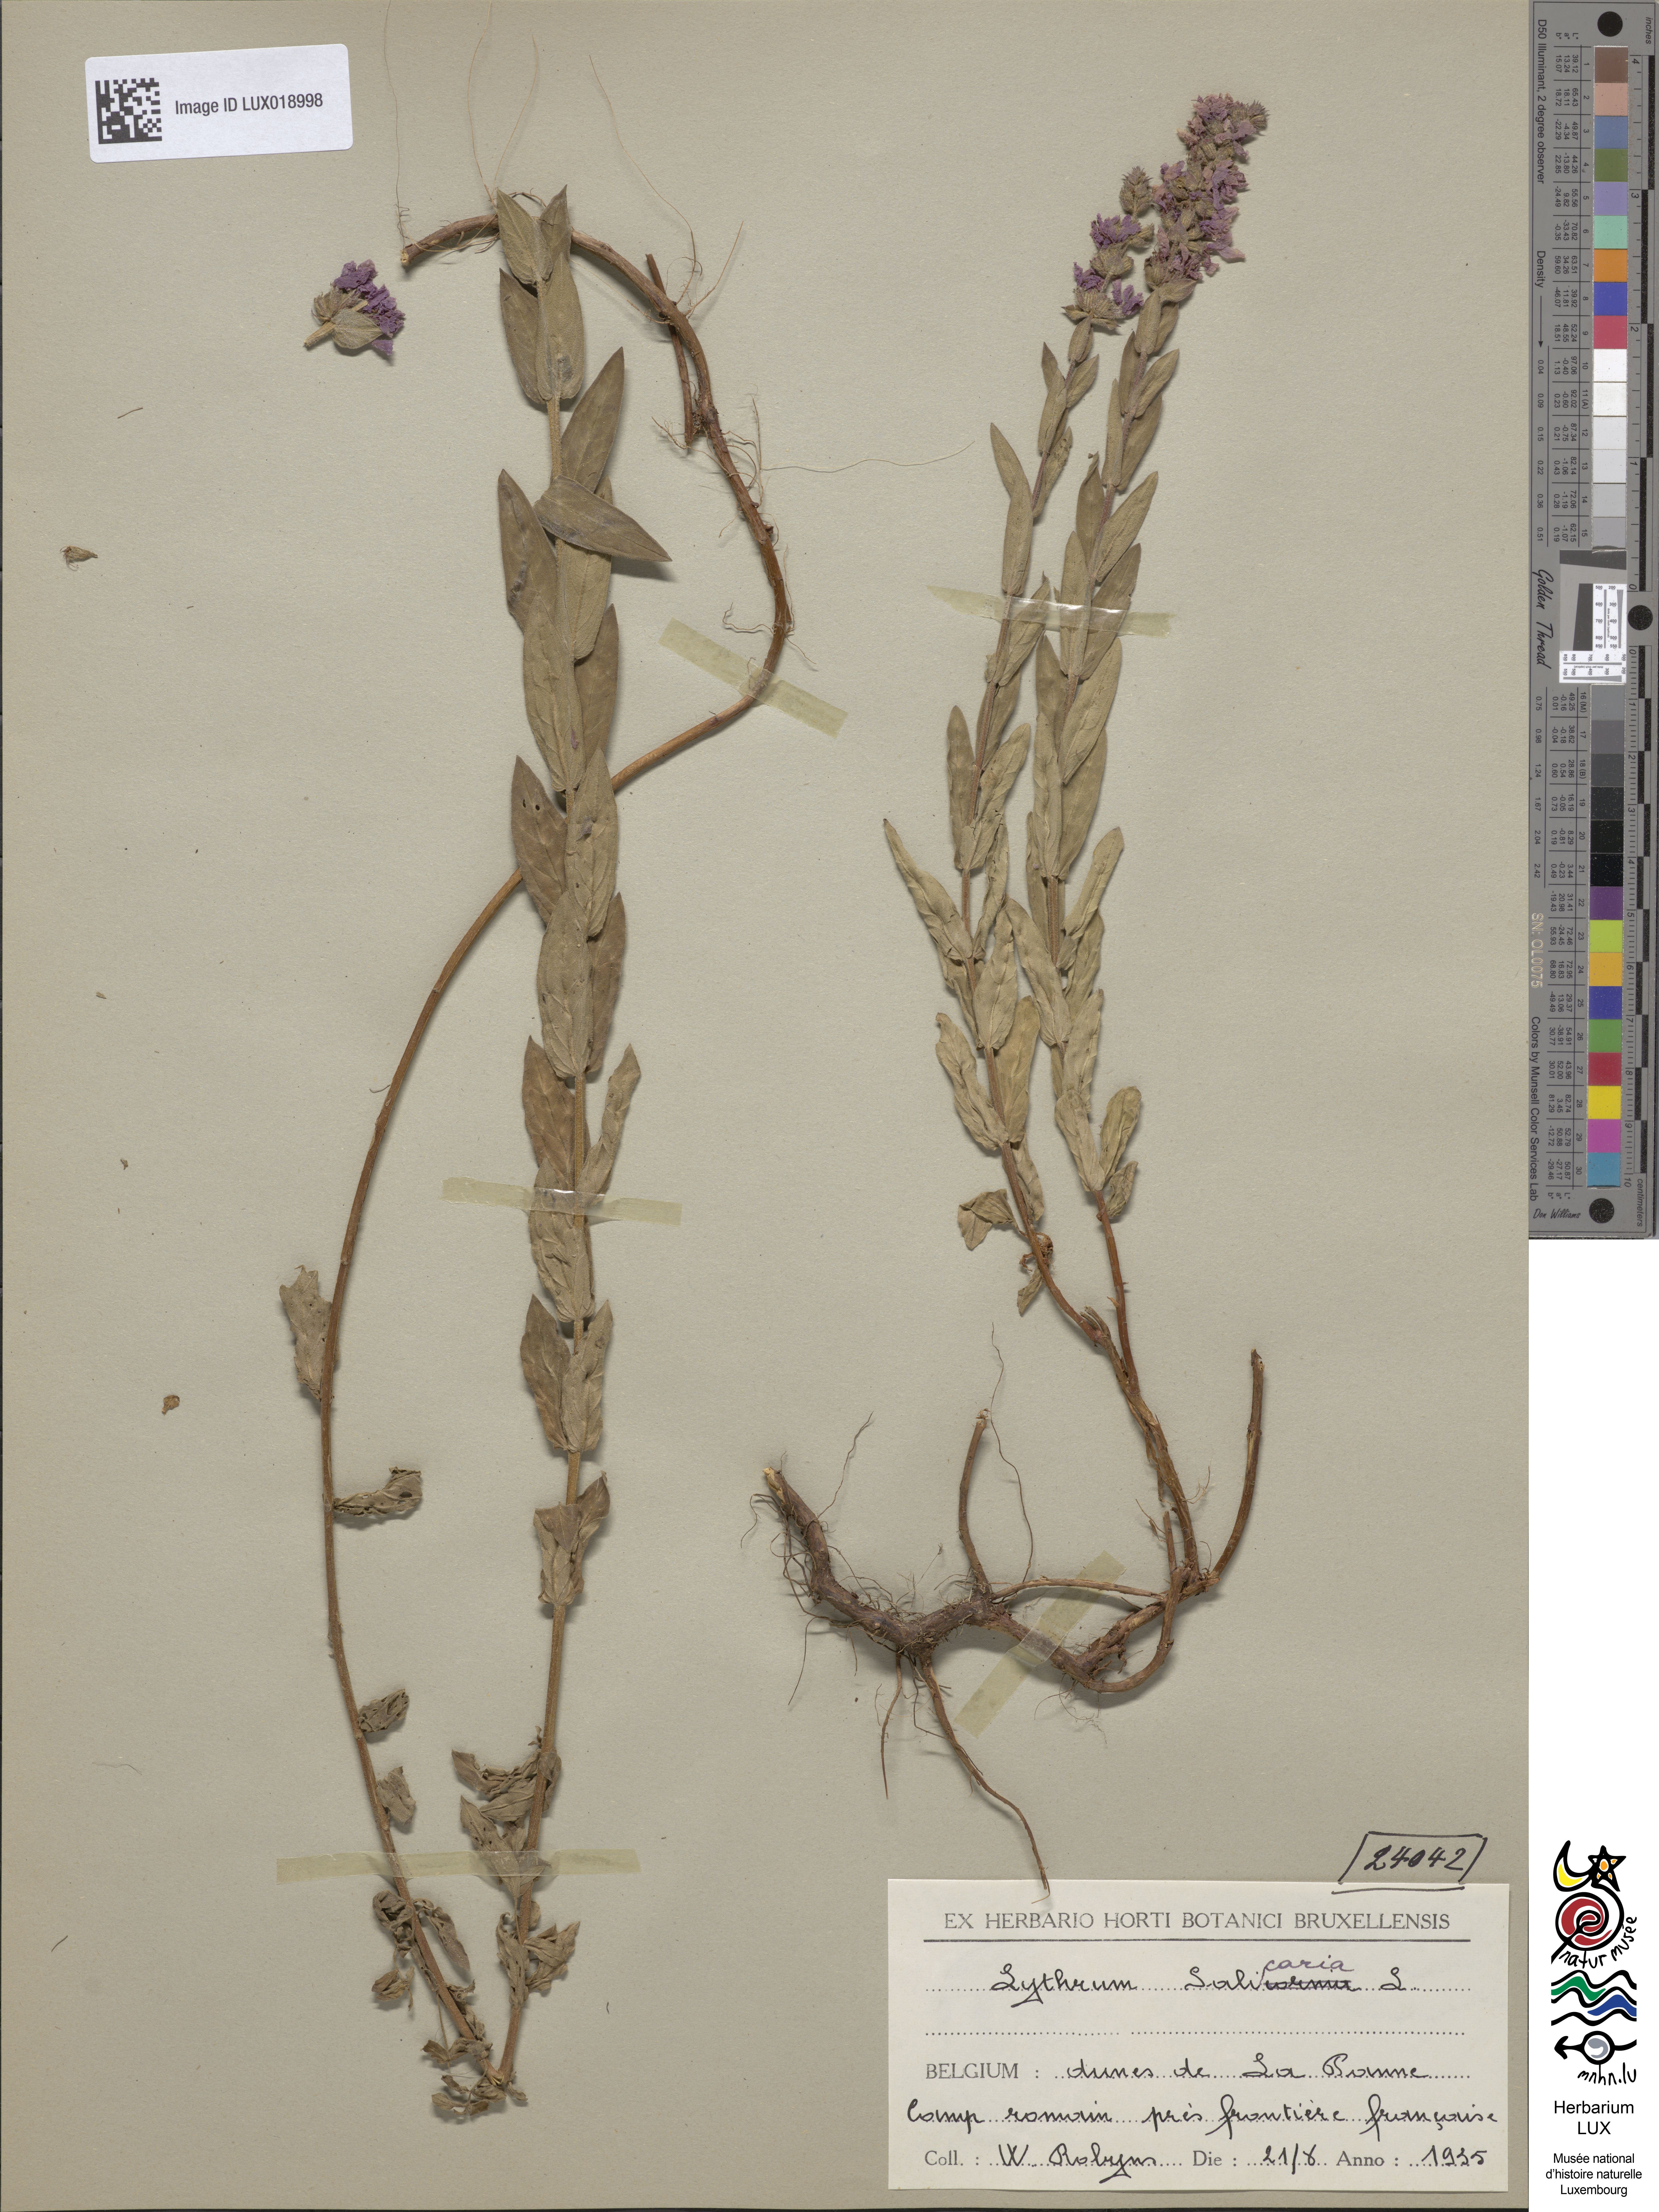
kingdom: Plantae
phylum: Tracheophyta
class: Magnoliopsida
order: Myrtales
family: Lythraceae
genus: Lythrum
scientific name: Lythrum salicaria
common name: Purple loosestrife
